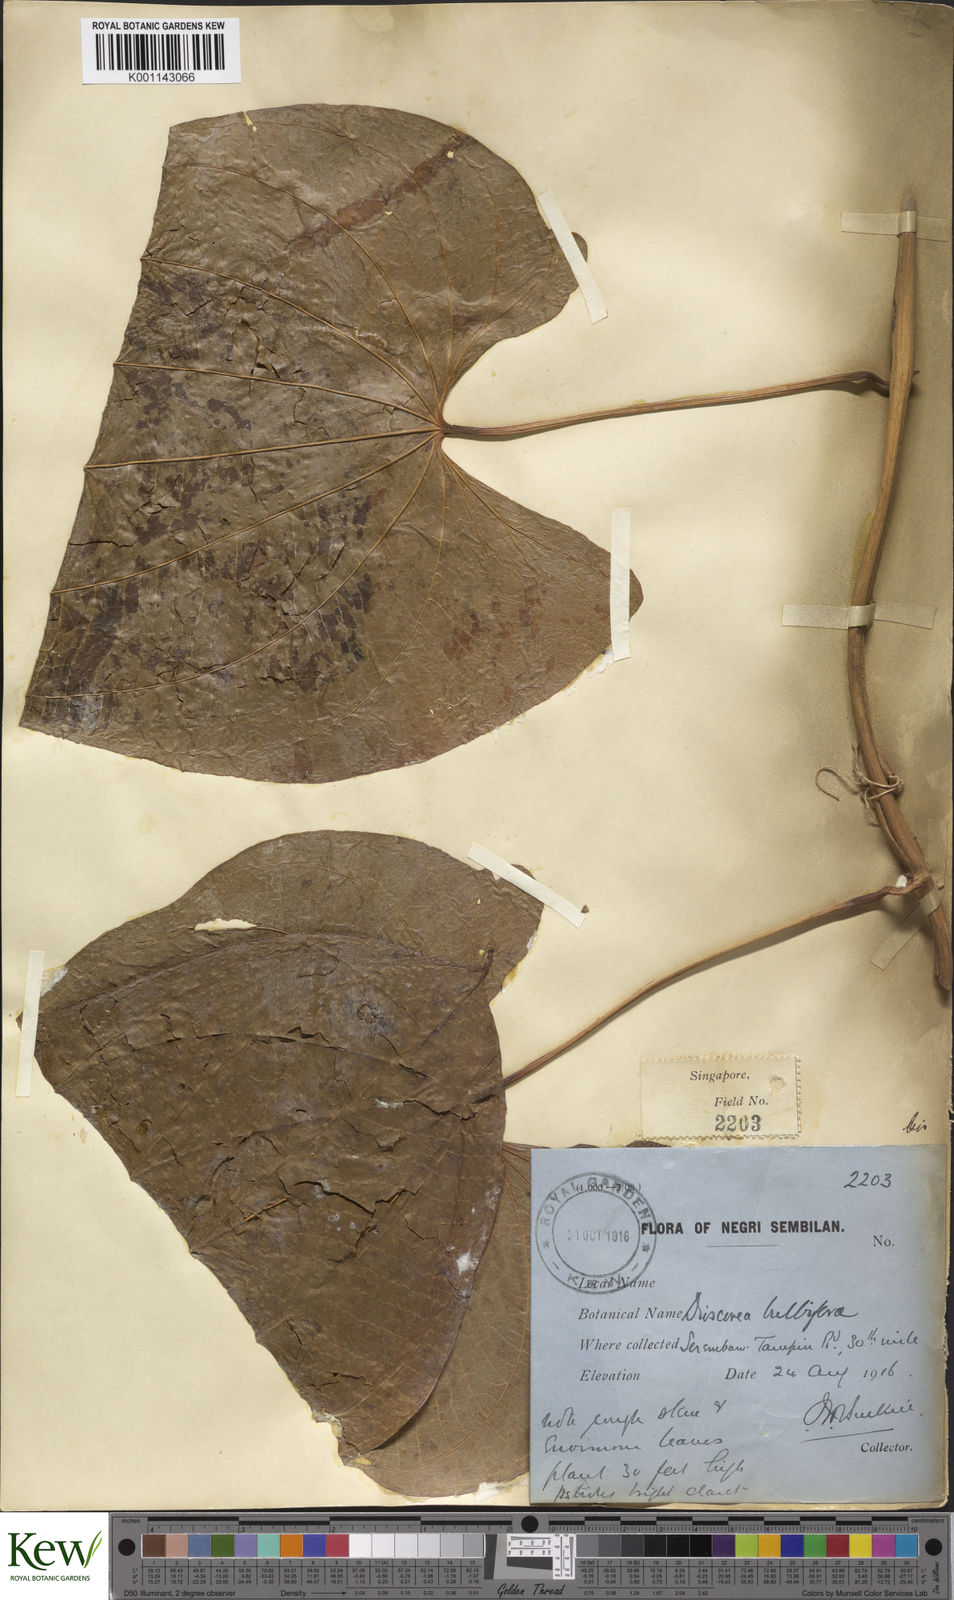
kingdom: Plantae
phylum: Tracheophyta
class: Liliopsida
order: Dioscoreales
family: Dioscoreaceae
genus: Dioscorea
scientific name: Dioscorea bulbifera
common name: Air yam
